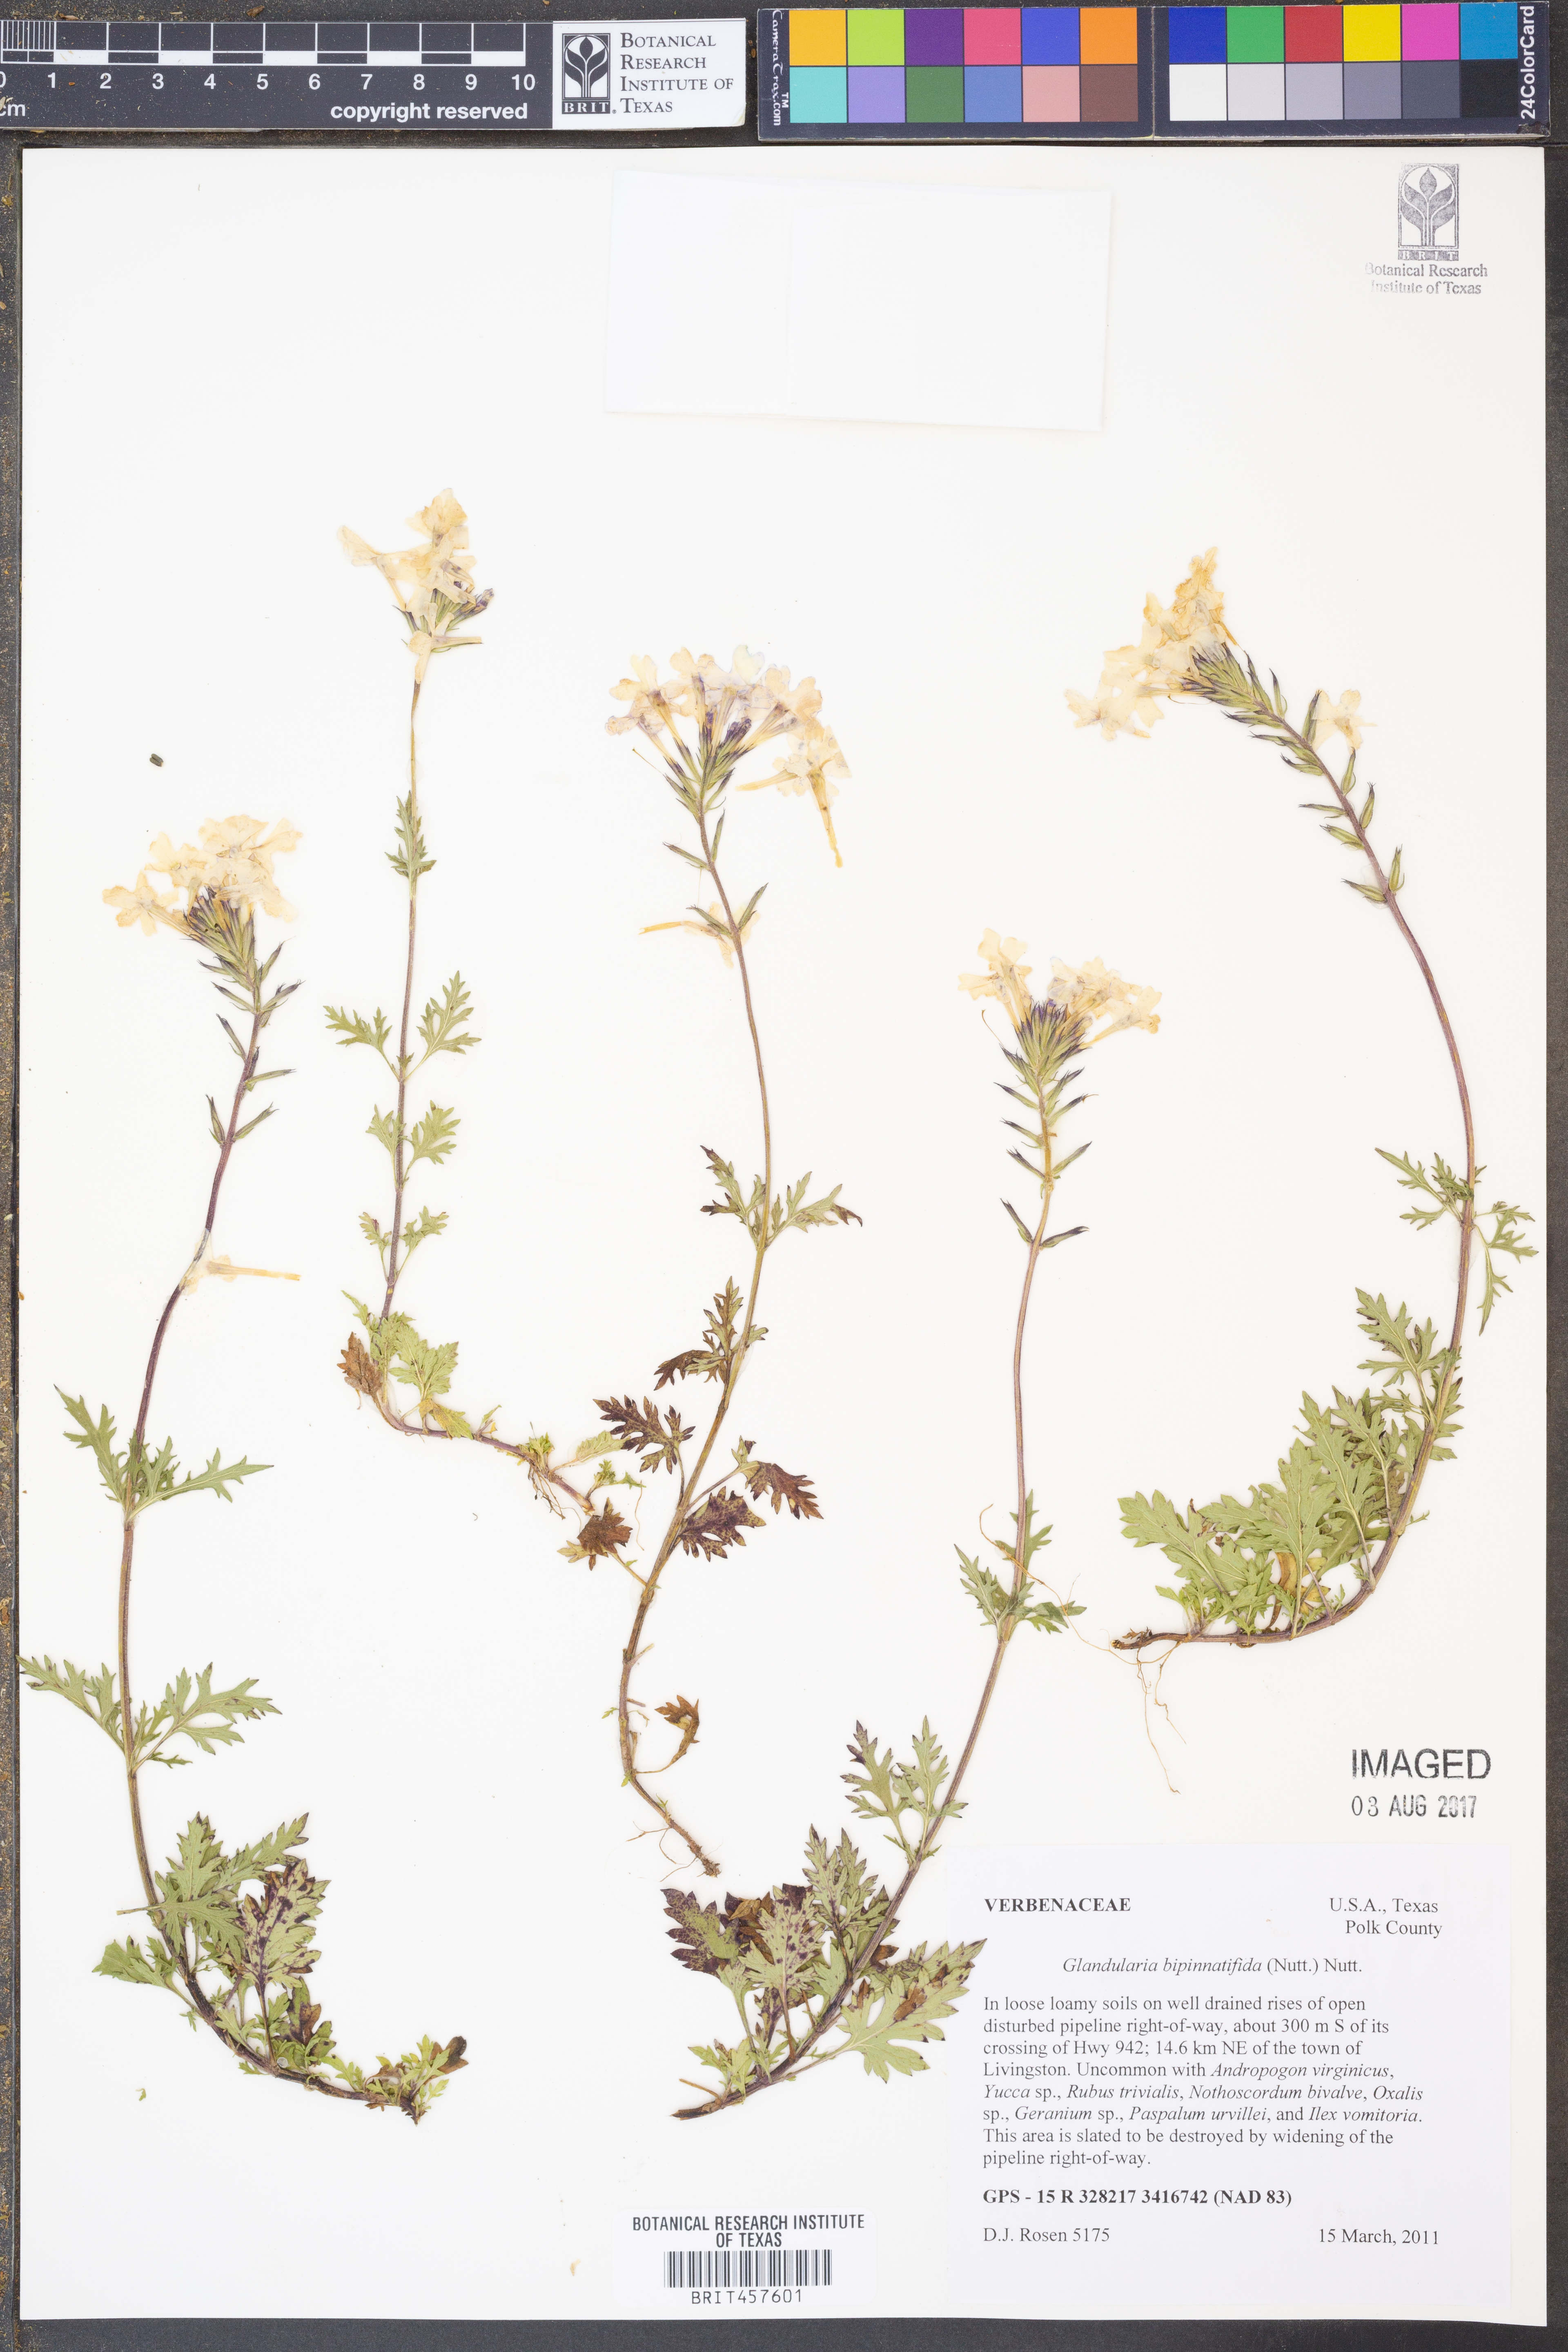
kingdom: Plantae
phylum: Tracheophyta
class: Magnoliopsida
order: Lamiales
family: Verbenaceae
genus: Verbena
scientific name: Verbena bipinnatifida
